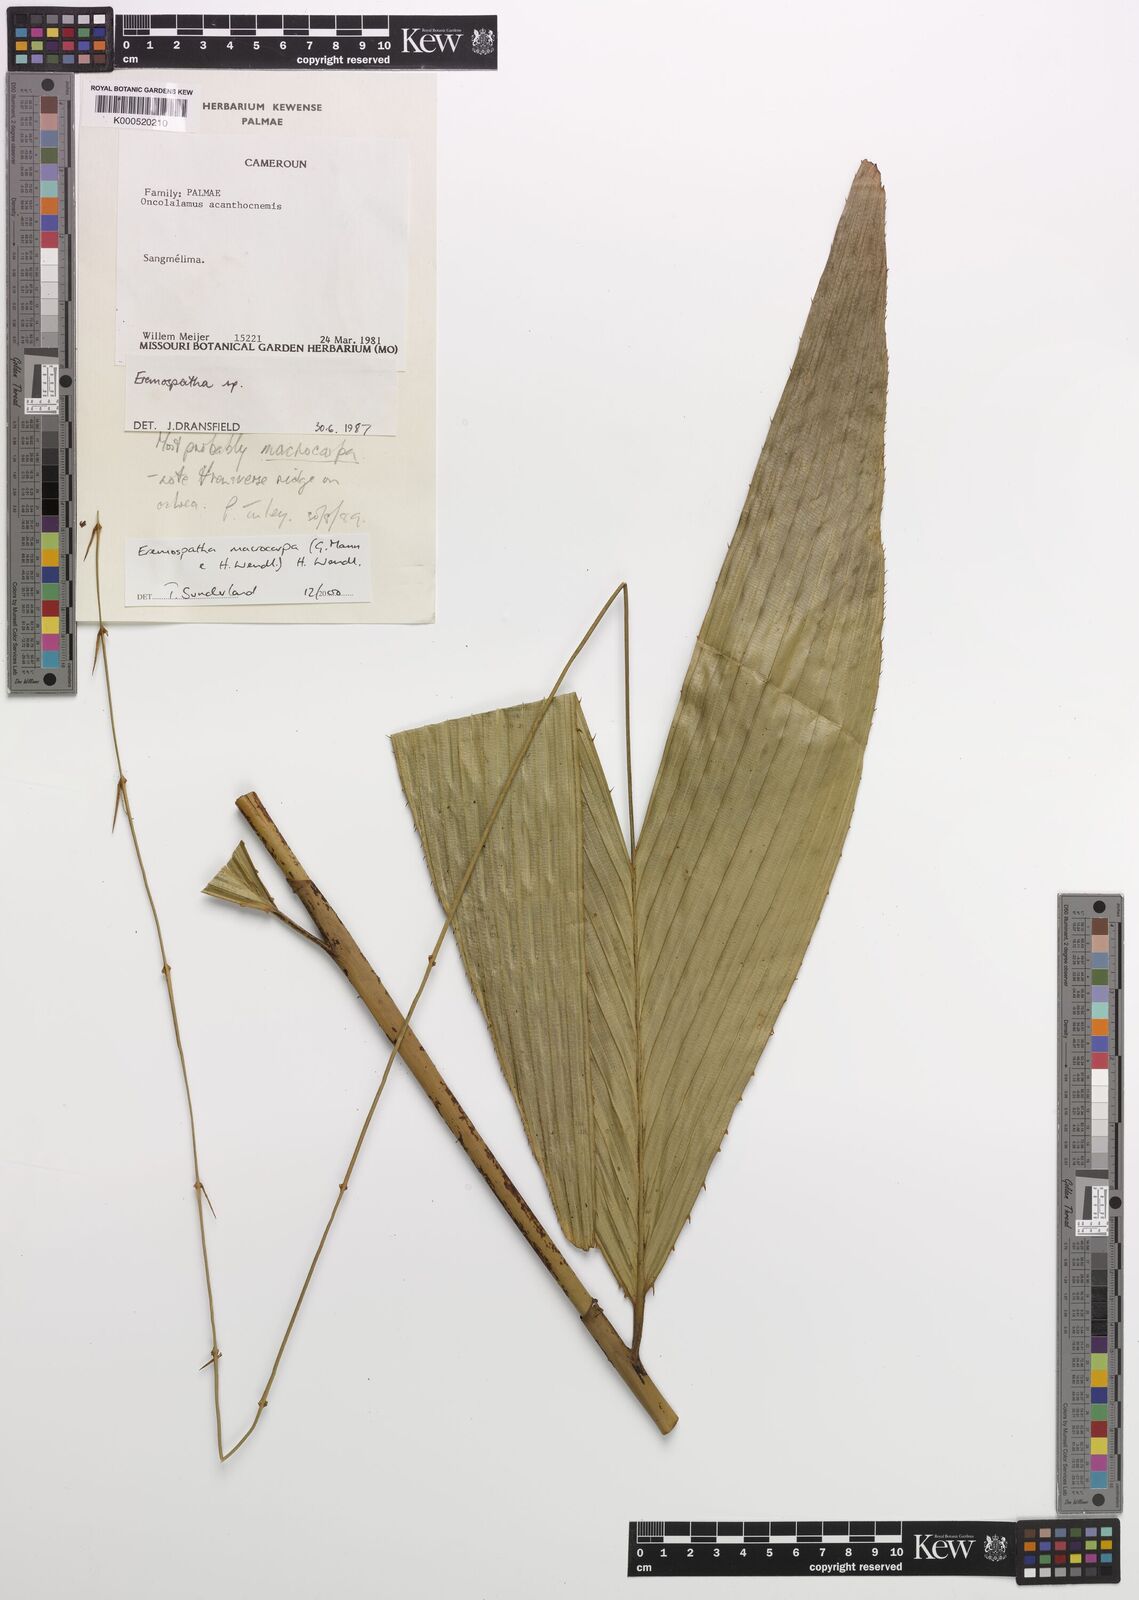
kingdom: Plantae
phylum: Tracheophyta
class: Liliopsida
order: Arecales
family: Arecaceae
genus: Eremospatha
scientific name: Eremospatha
